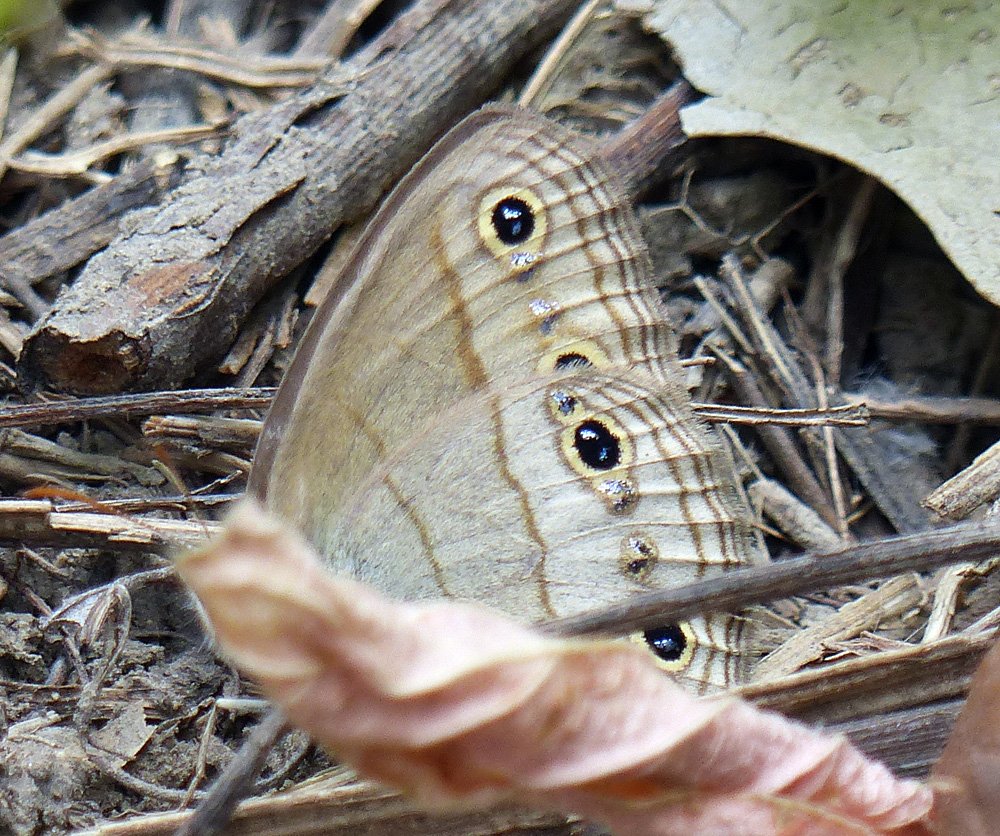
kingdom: Animalia
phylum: Arthropoda
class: Insecta
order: Lepidoptera
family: Nymphalidae
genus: Euptychia
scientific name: Euptychia cymela
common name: Little Wood Satyr
